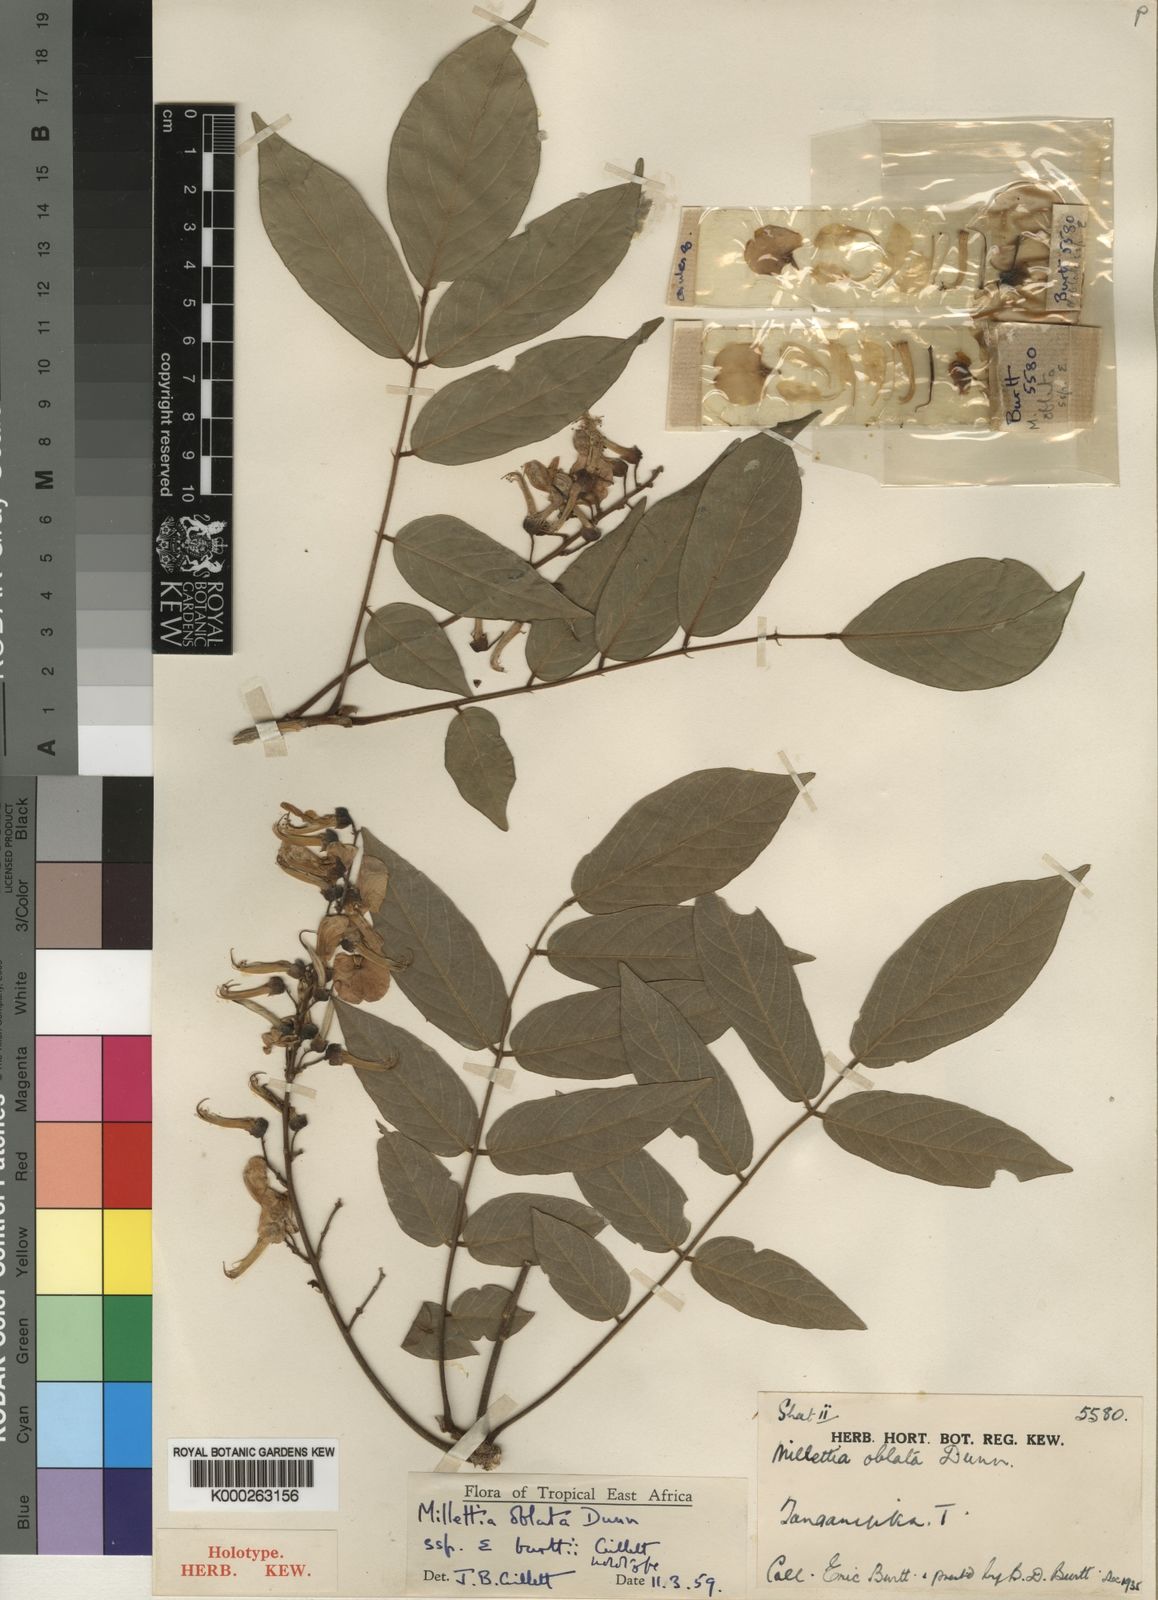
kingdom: Plantae
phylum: Tracheophyta
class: Magnoliopsida
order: Fabales
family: Fabaceae
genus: Millettia
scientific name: Millettia oblata
